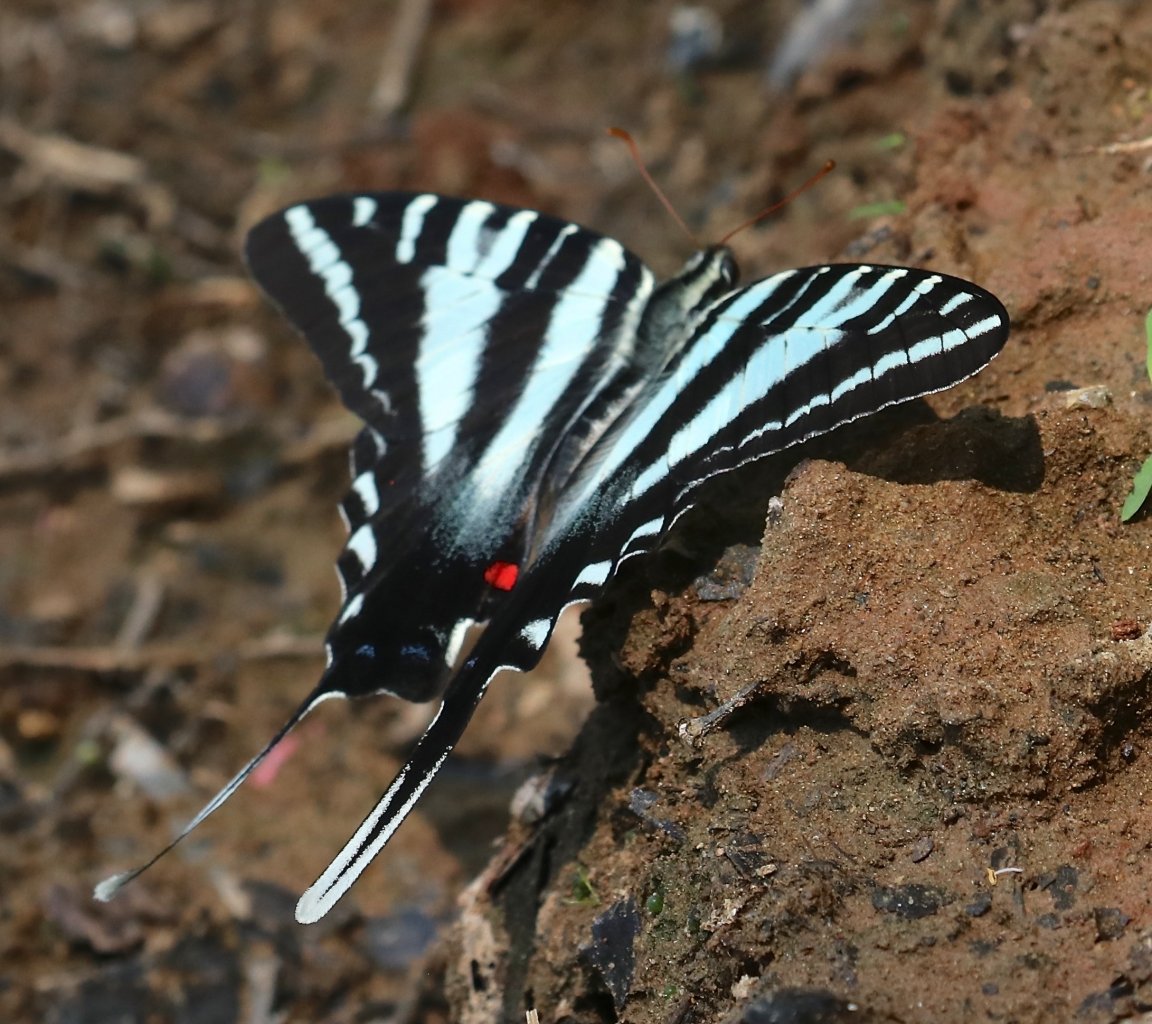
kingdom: Animalia
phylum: Arthropoda
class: Insecta
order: Lepidoptera
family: Papilionidae
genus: Protographium
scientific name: Protographium marcellus
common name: Zebra Swallowtail
